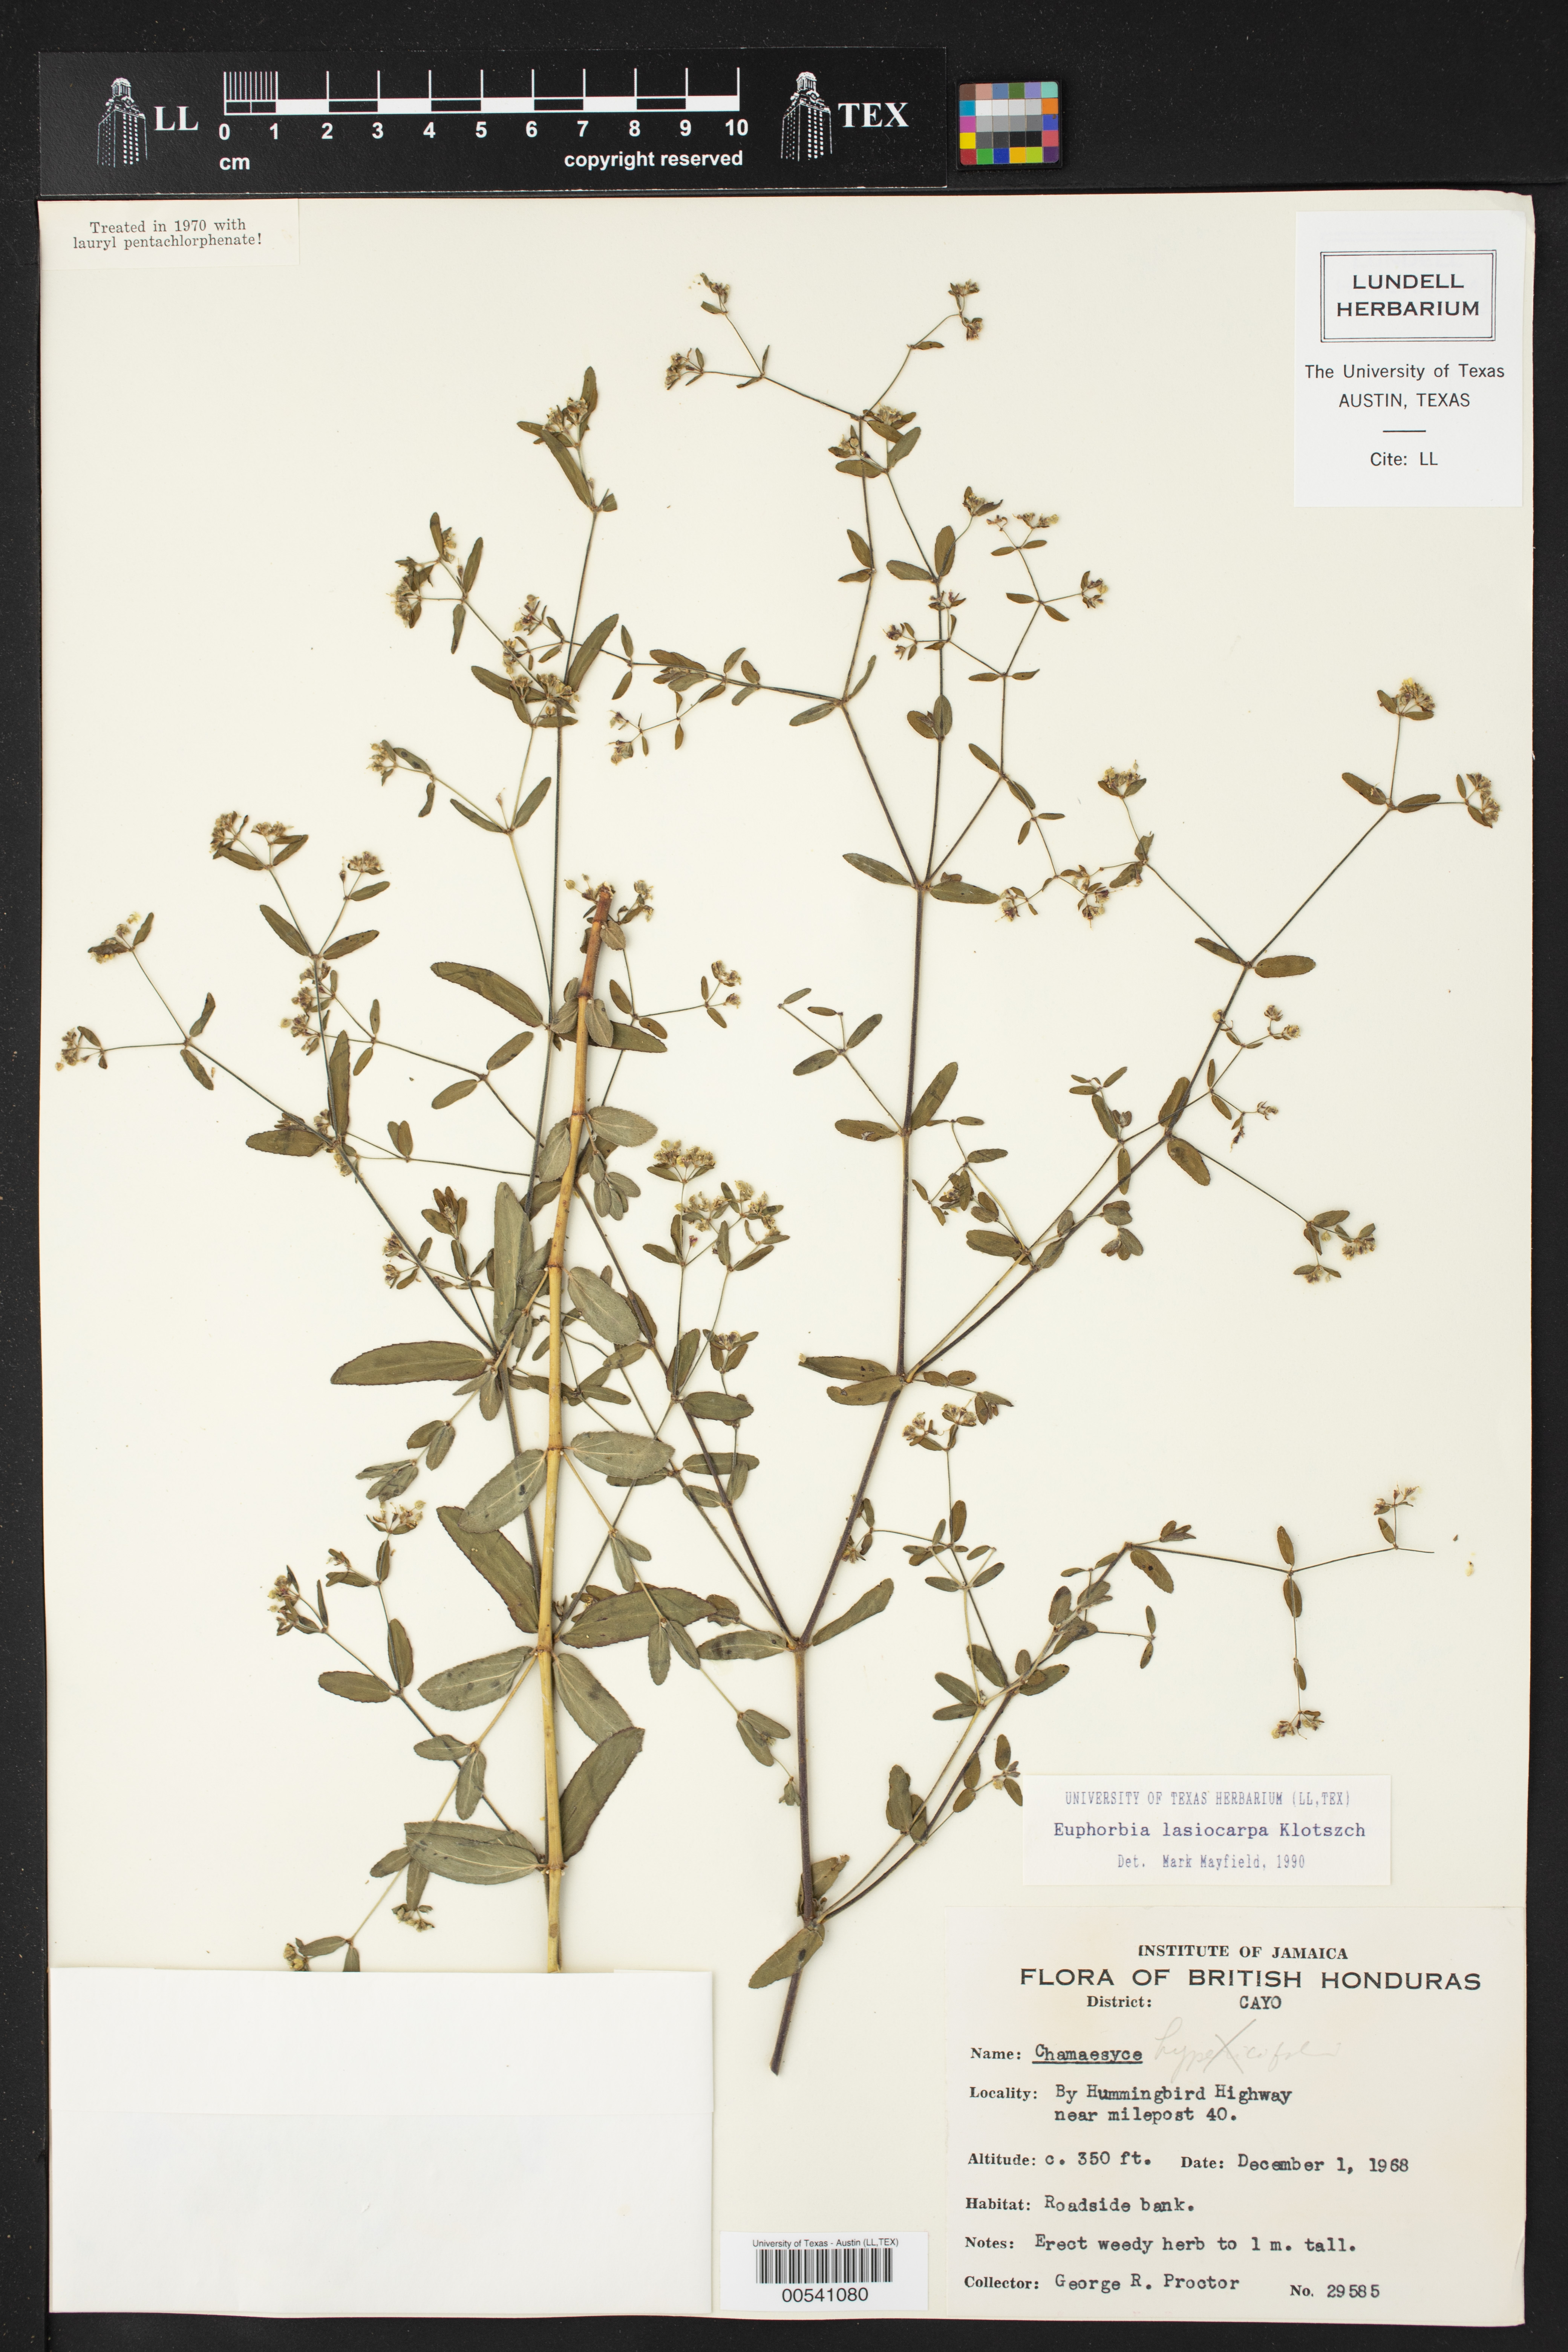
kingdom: Plantae
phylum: Tracheophyta
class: Magnoliopsida
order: Malpighiales
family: Euphorbiaceae
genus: Euphorbia
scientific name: Euphorbia lasiocarpa
